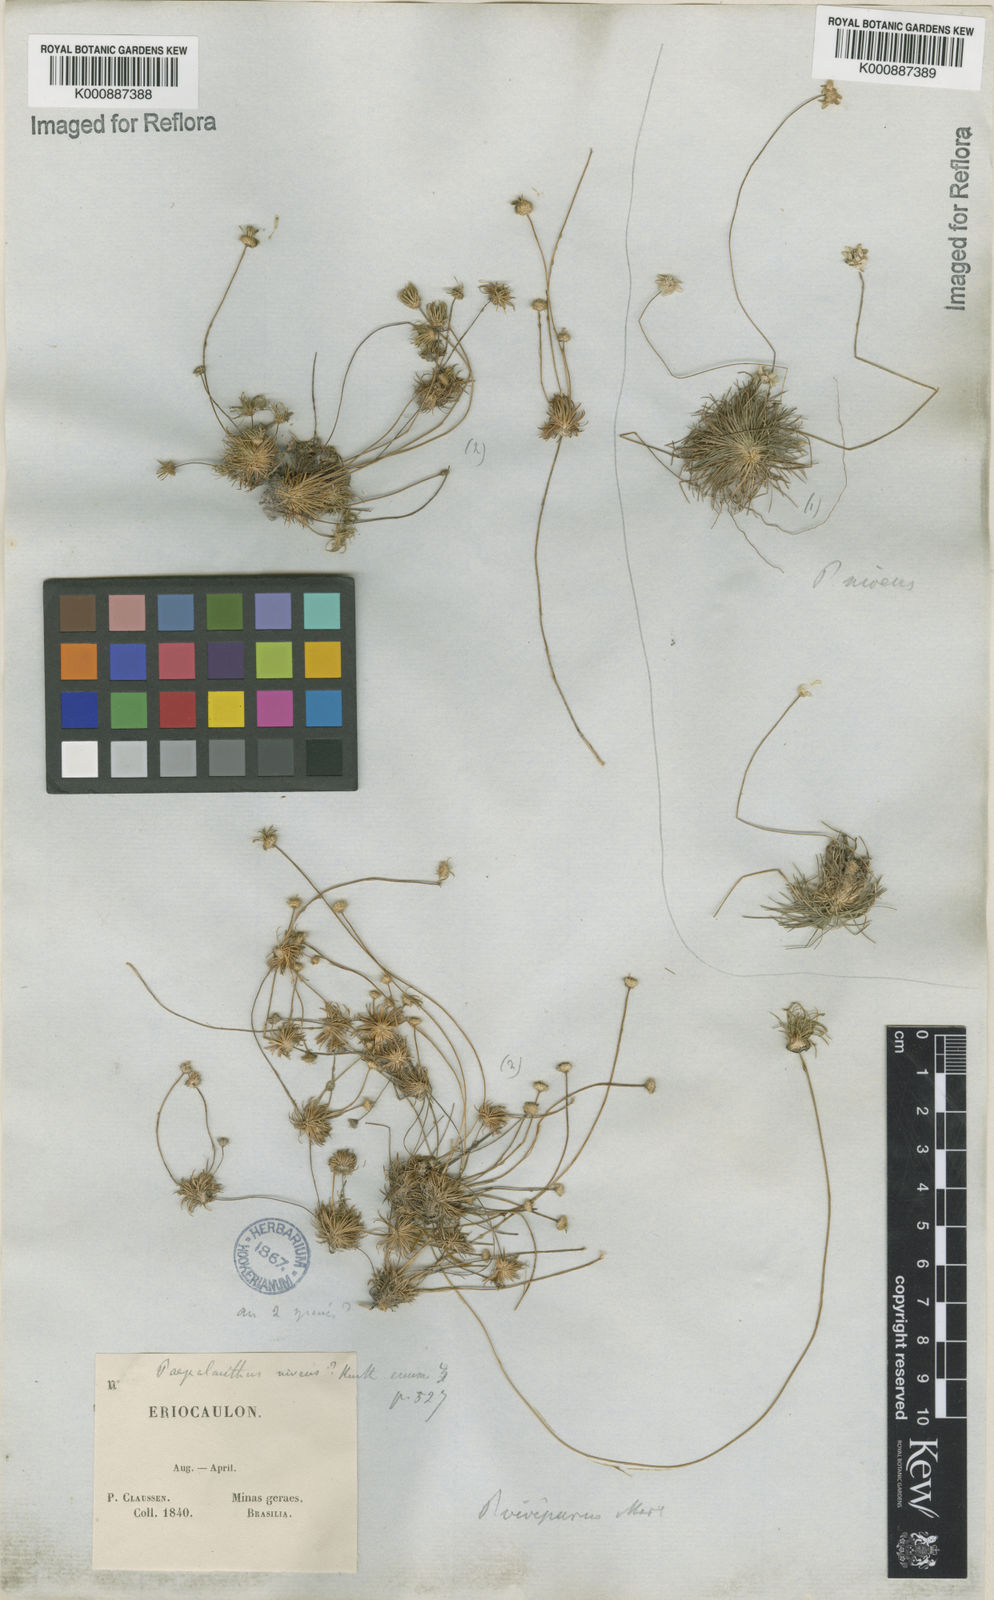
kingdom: Plantae
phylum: Tracheophyta
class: Liliopsida
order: Poales
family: Eriocaulaceae
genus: Leiothrix
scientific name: Leiothrix
